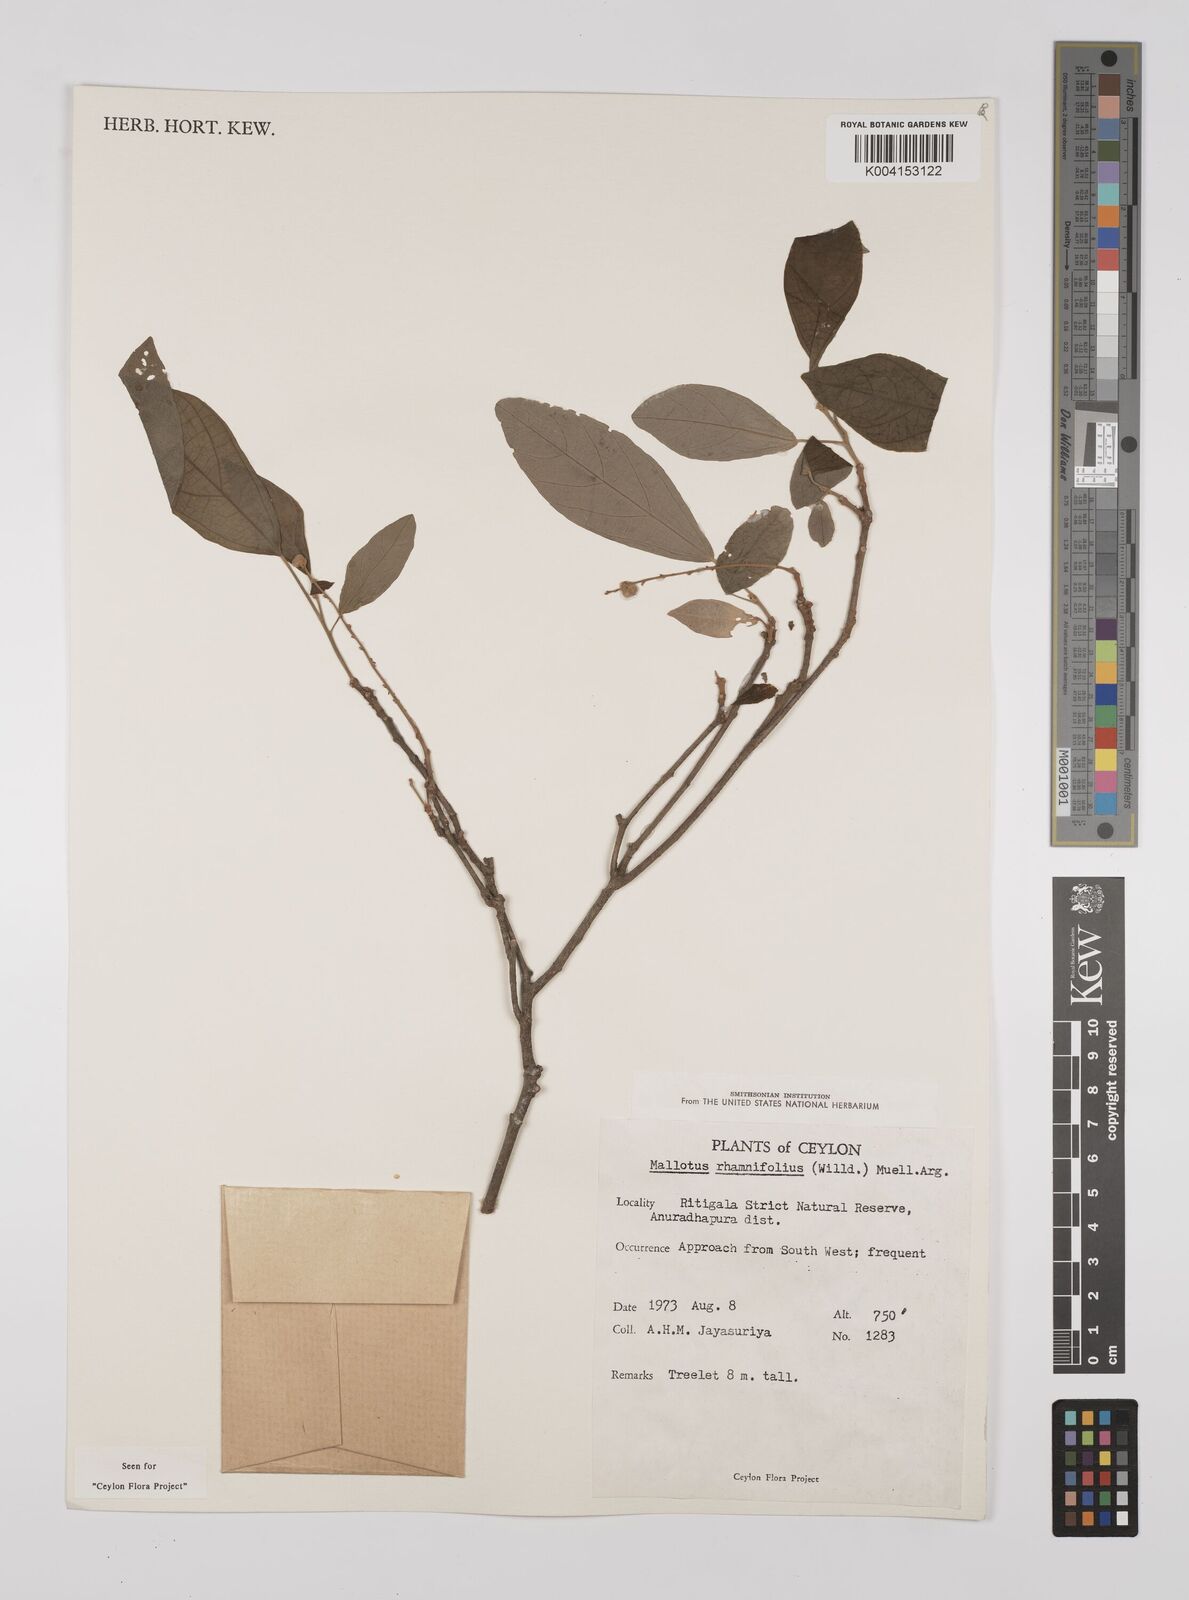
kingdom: Plantae
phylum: Tracheophyta
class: Magnoliopsida
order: Malpighiales
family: Euphorbiaceae
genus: Mallotus
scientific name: Mallotus rhamnifolius
